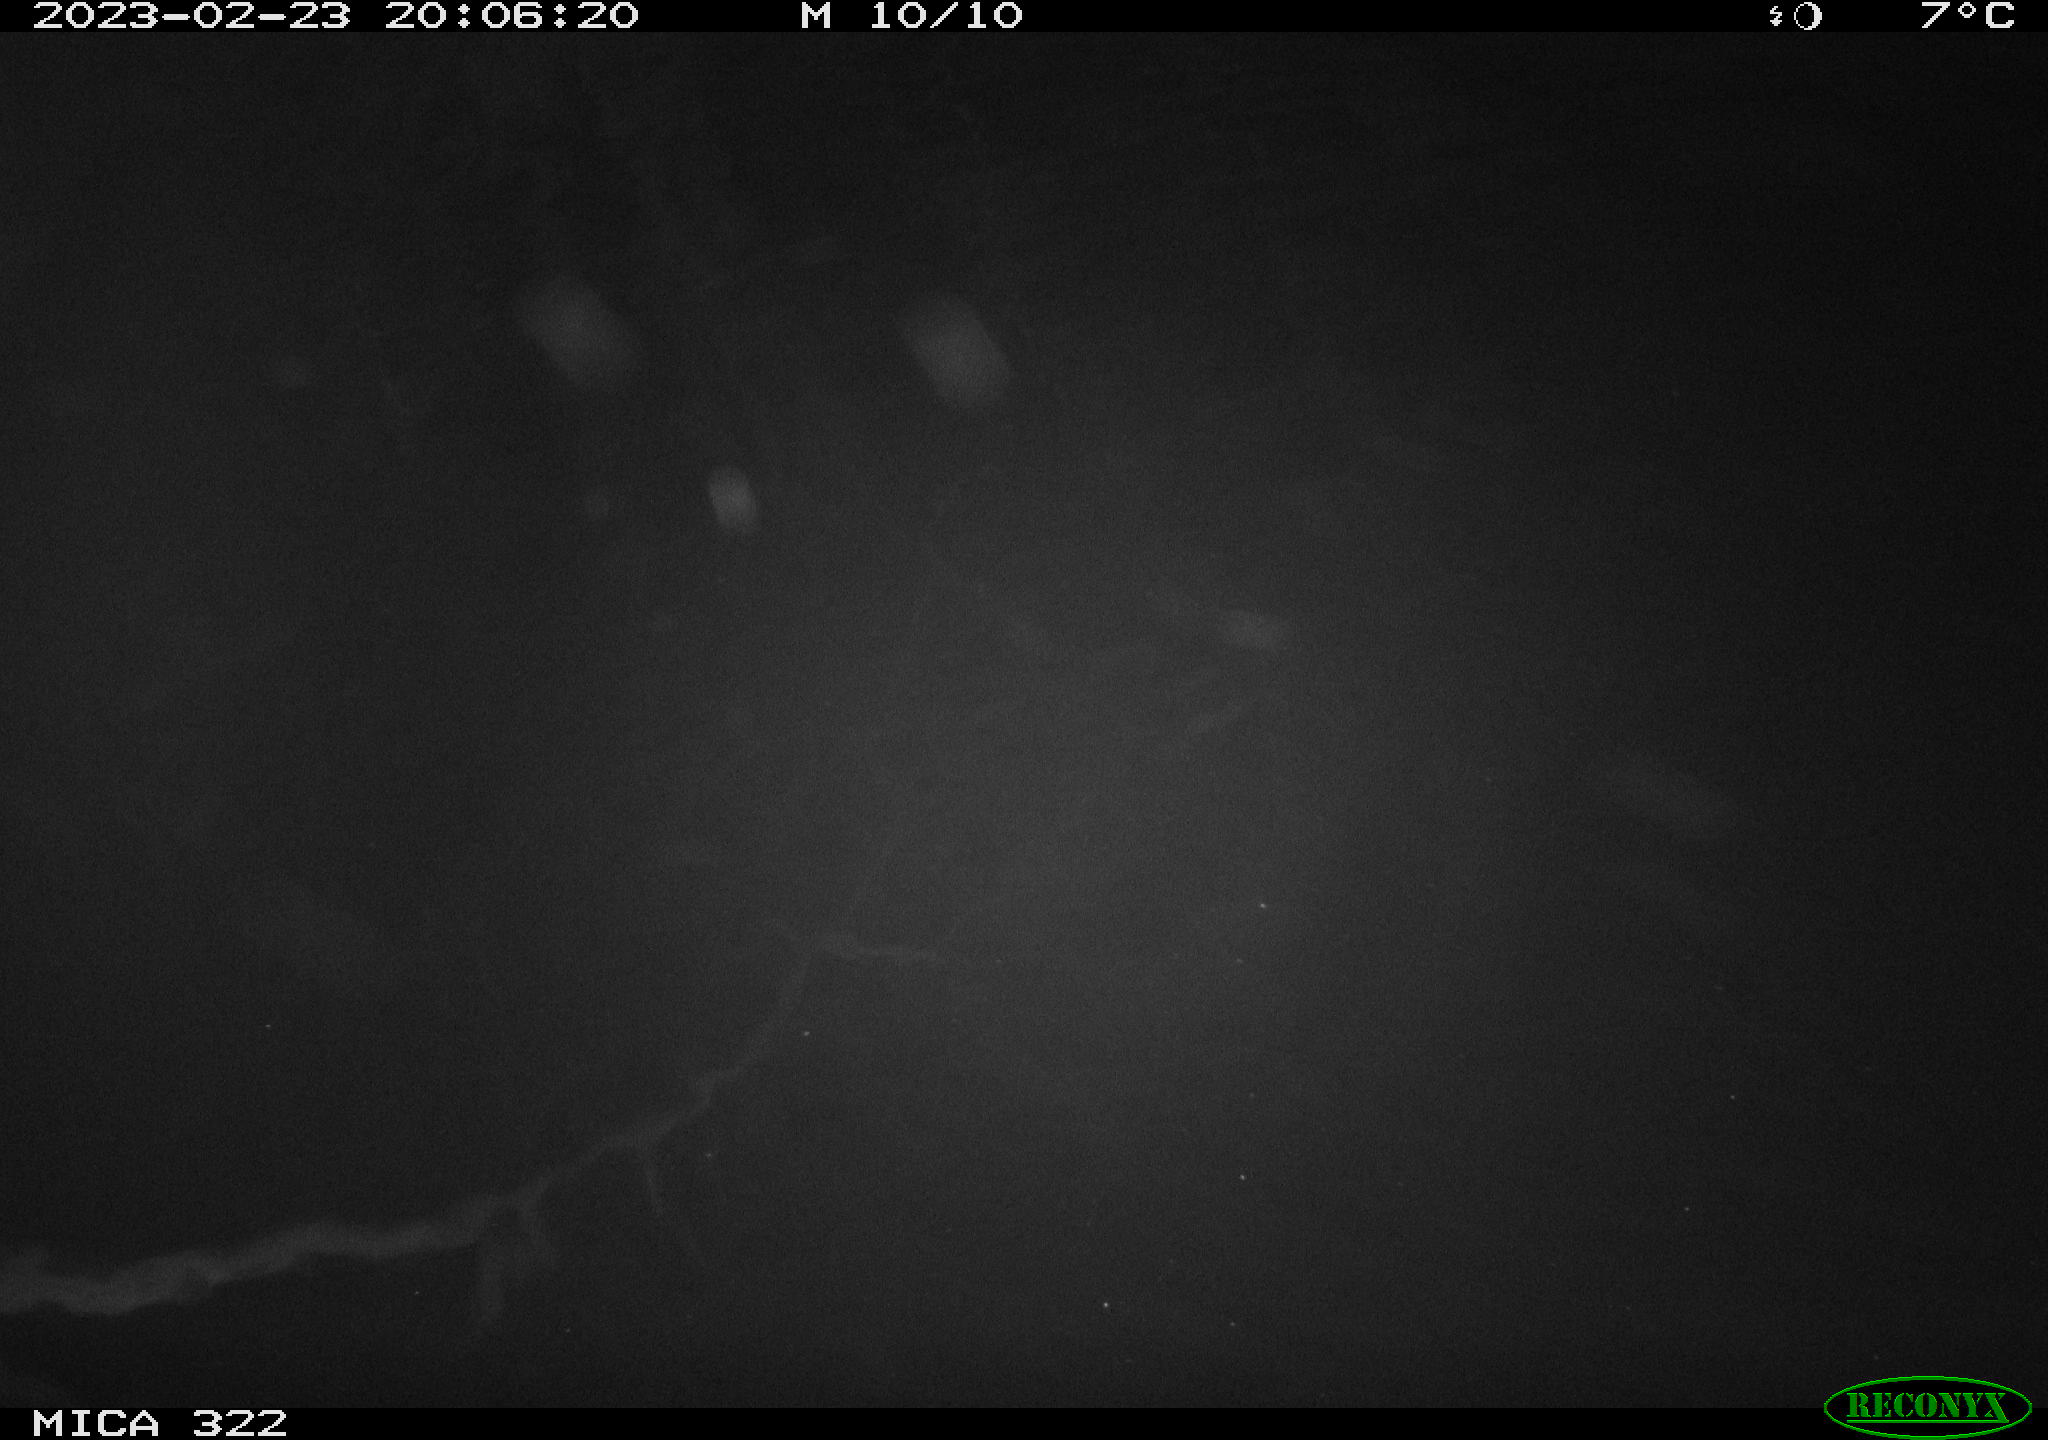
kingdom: Animalia
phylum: Chordata
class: Mammalia
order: Rodentia
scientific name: Rodentia
